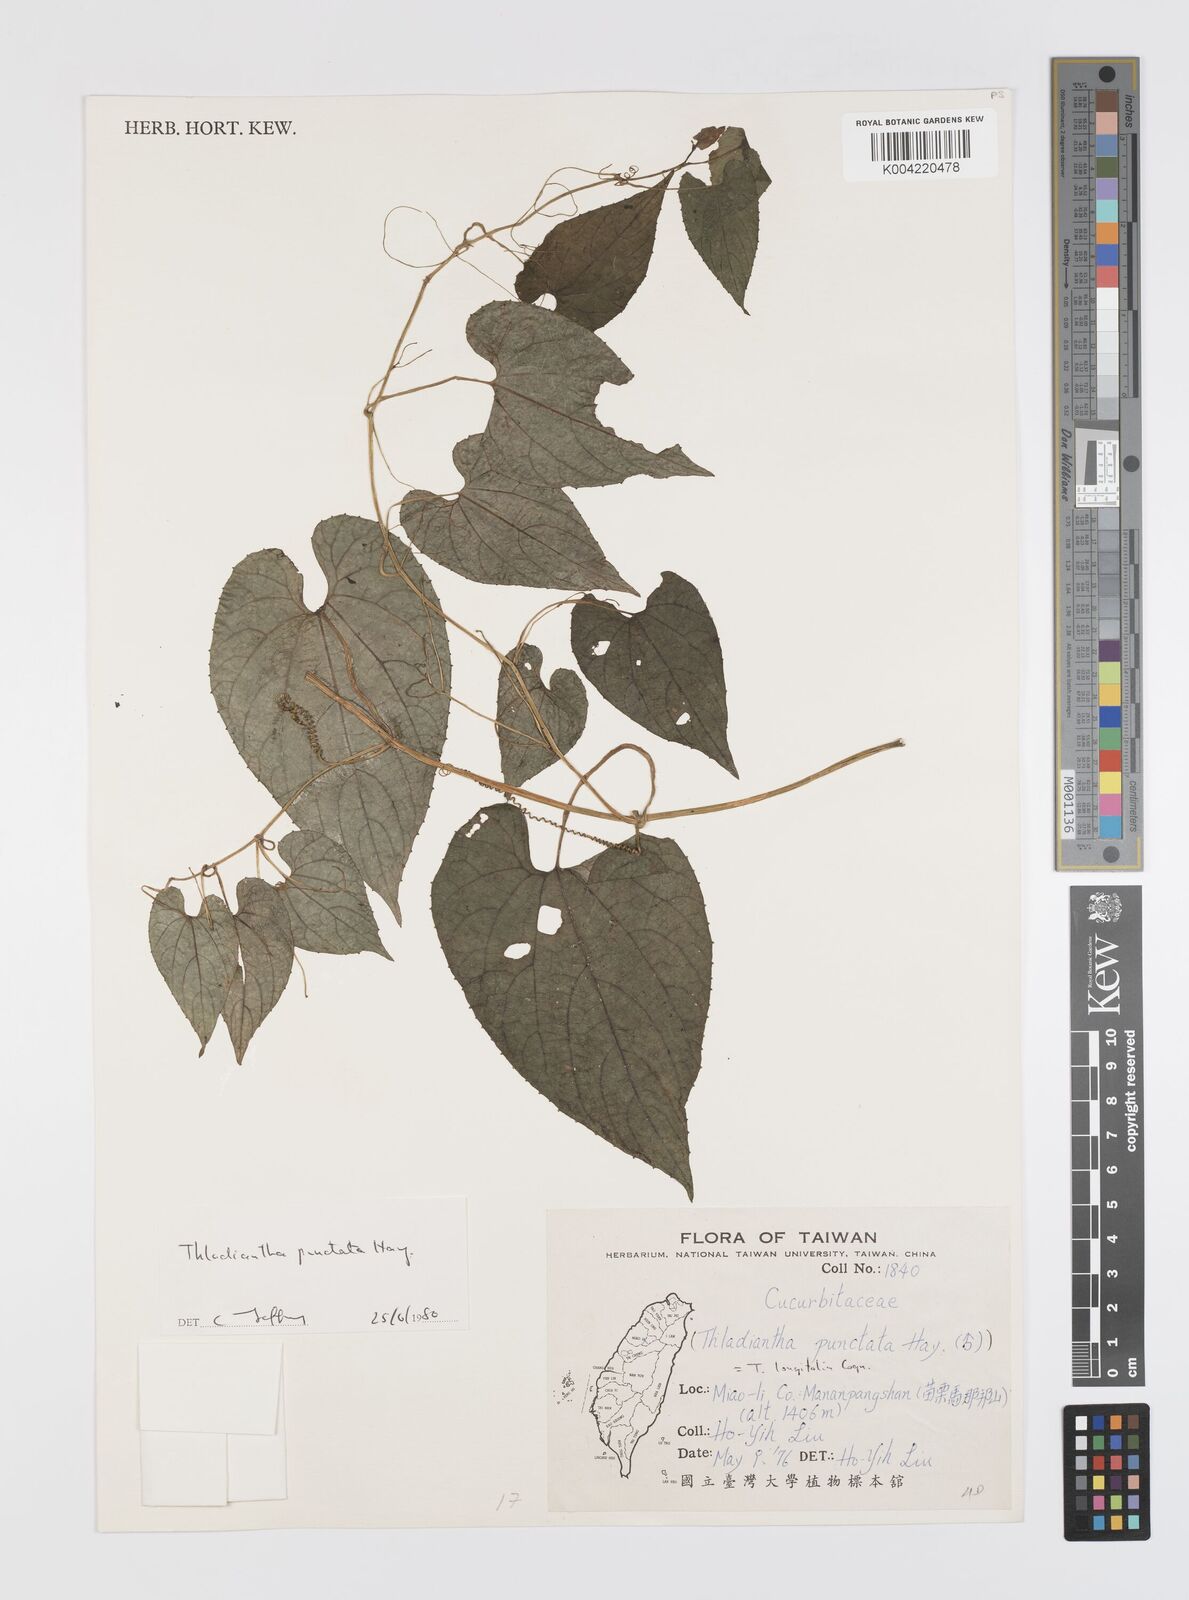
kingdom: Plantae
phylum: Tracheophyta
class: Magnoliopsida
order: Cucurbitales
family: Cucurbitaceae
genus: Thladiantha
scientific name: Thladiantha punctata
